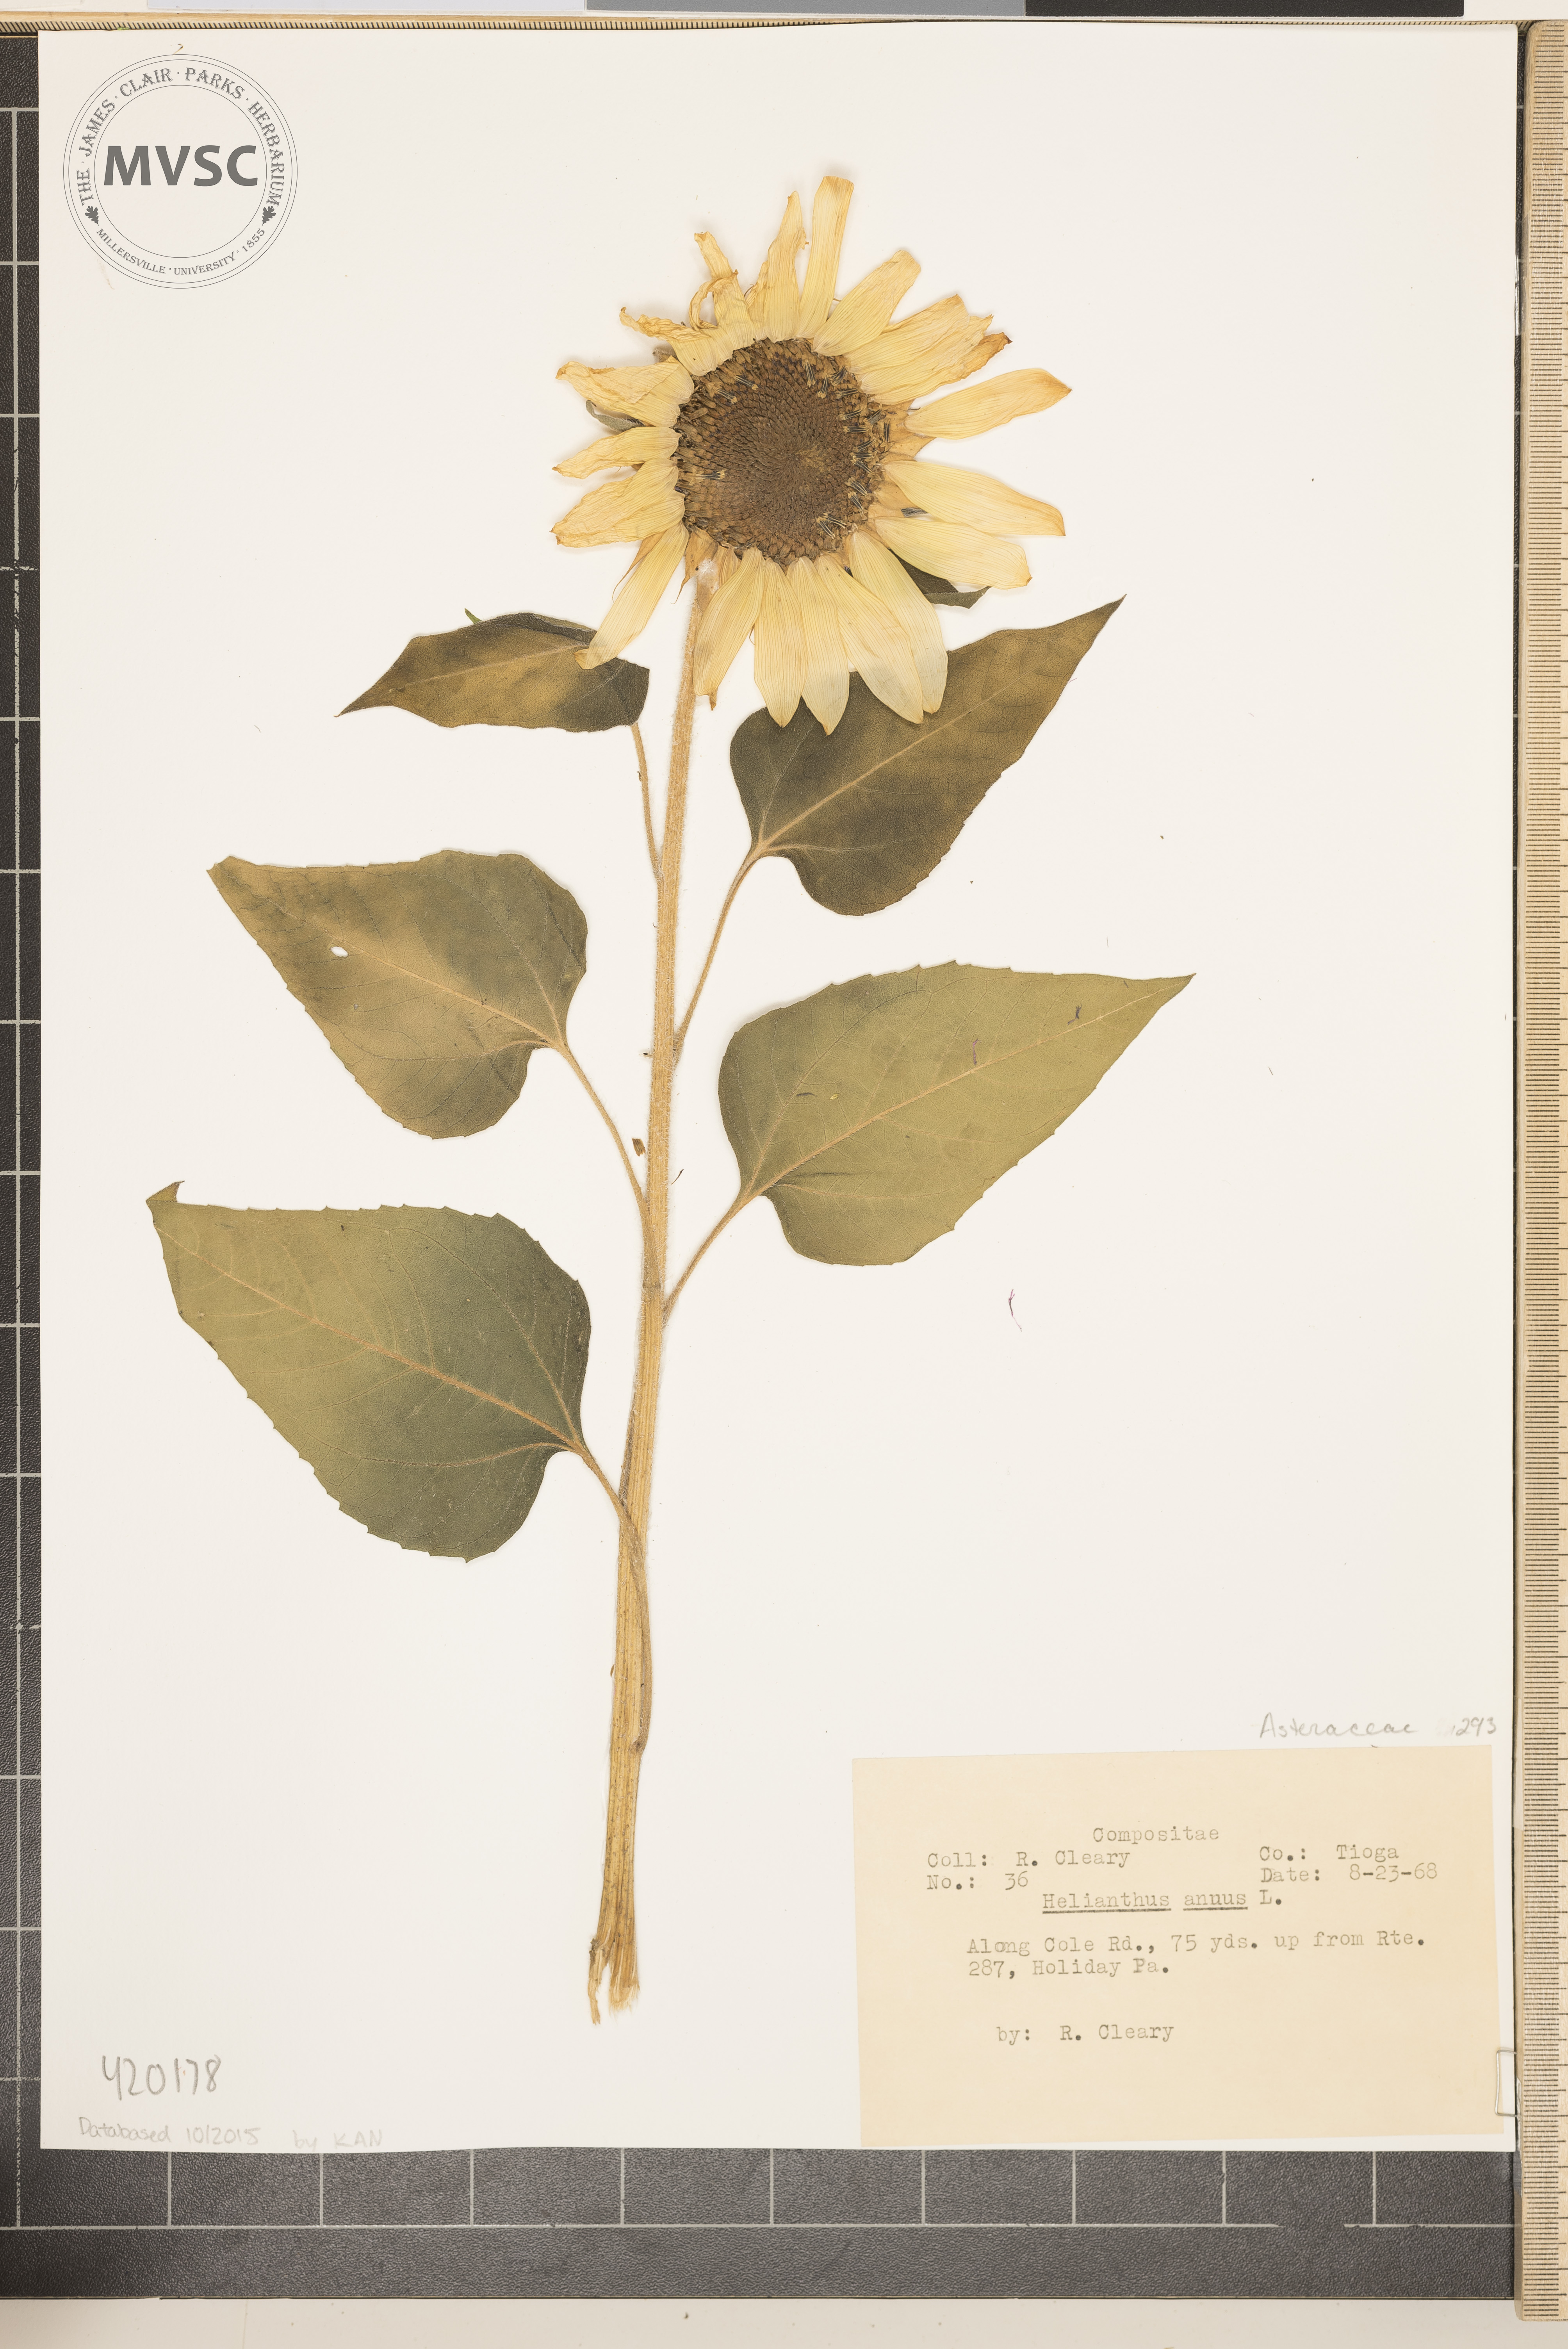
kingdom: Plantae
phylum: Tracheophyta
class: Magnoliopsida
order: Asterales
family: Asteraceae
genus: Helianthus
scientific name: Helianthus annuus
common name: Common Sunflower
